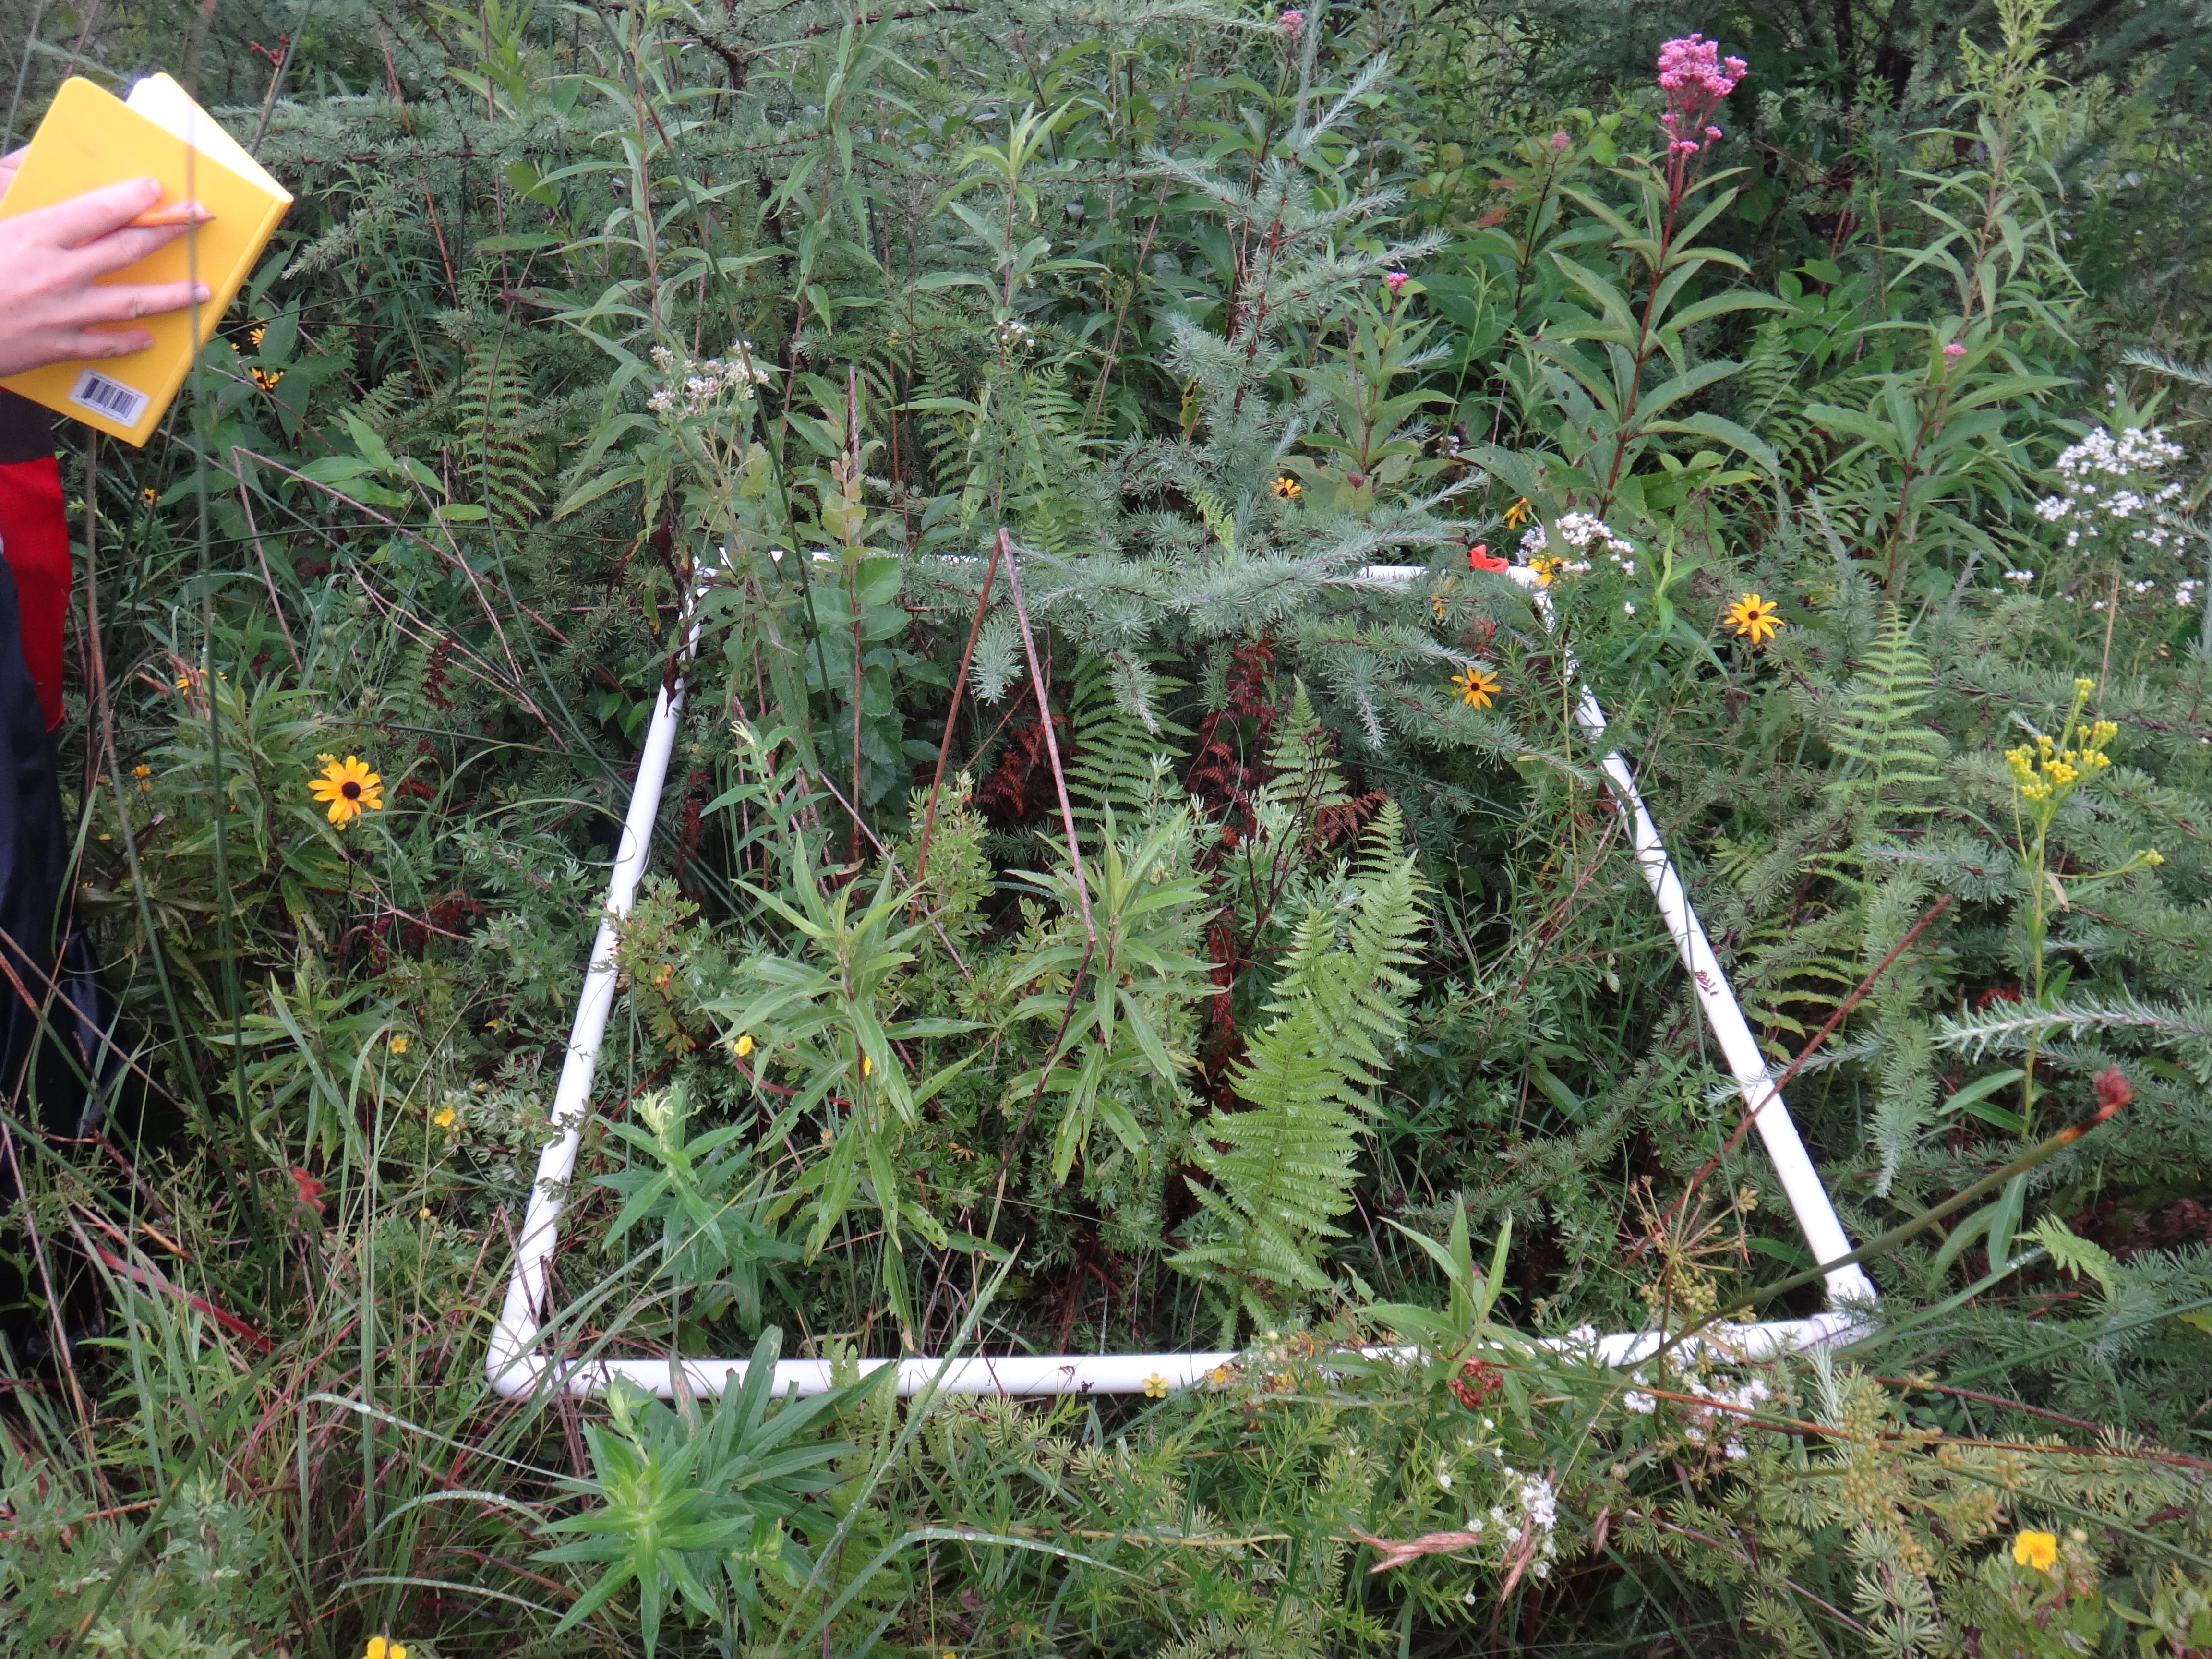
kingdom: Plantae
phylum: Tracheophyta
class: Liliopsida
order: Poales
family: Cyperaceae
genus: Carex
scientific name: Carex sterilis
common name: Dioecious sedge
